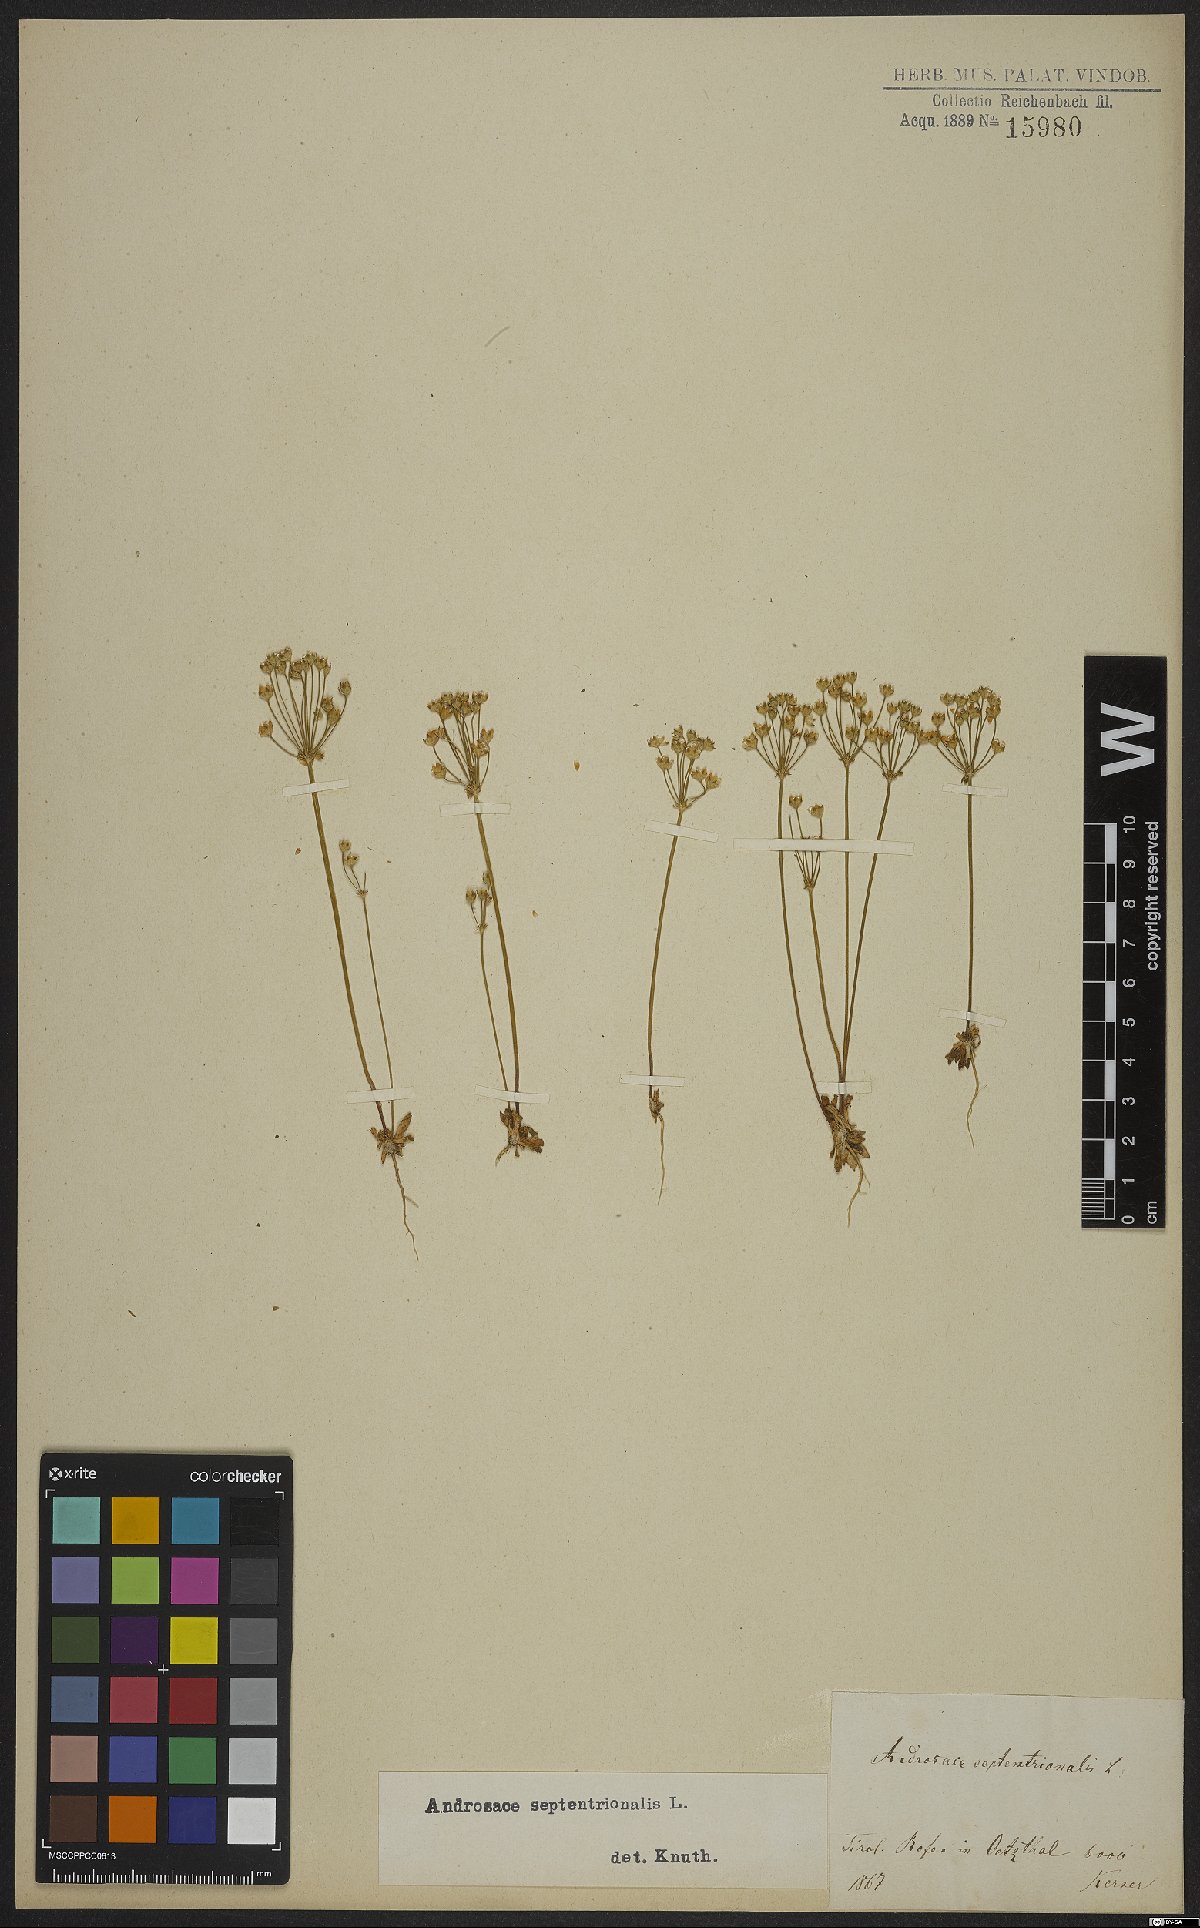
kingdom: Plantae
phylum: Tracheophyta
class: Magnoliopsida
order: Ericales
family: Primulaceae
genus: Androsace
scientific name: Androsace septentrionalis
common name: Hairy northern fairy-candelabra
